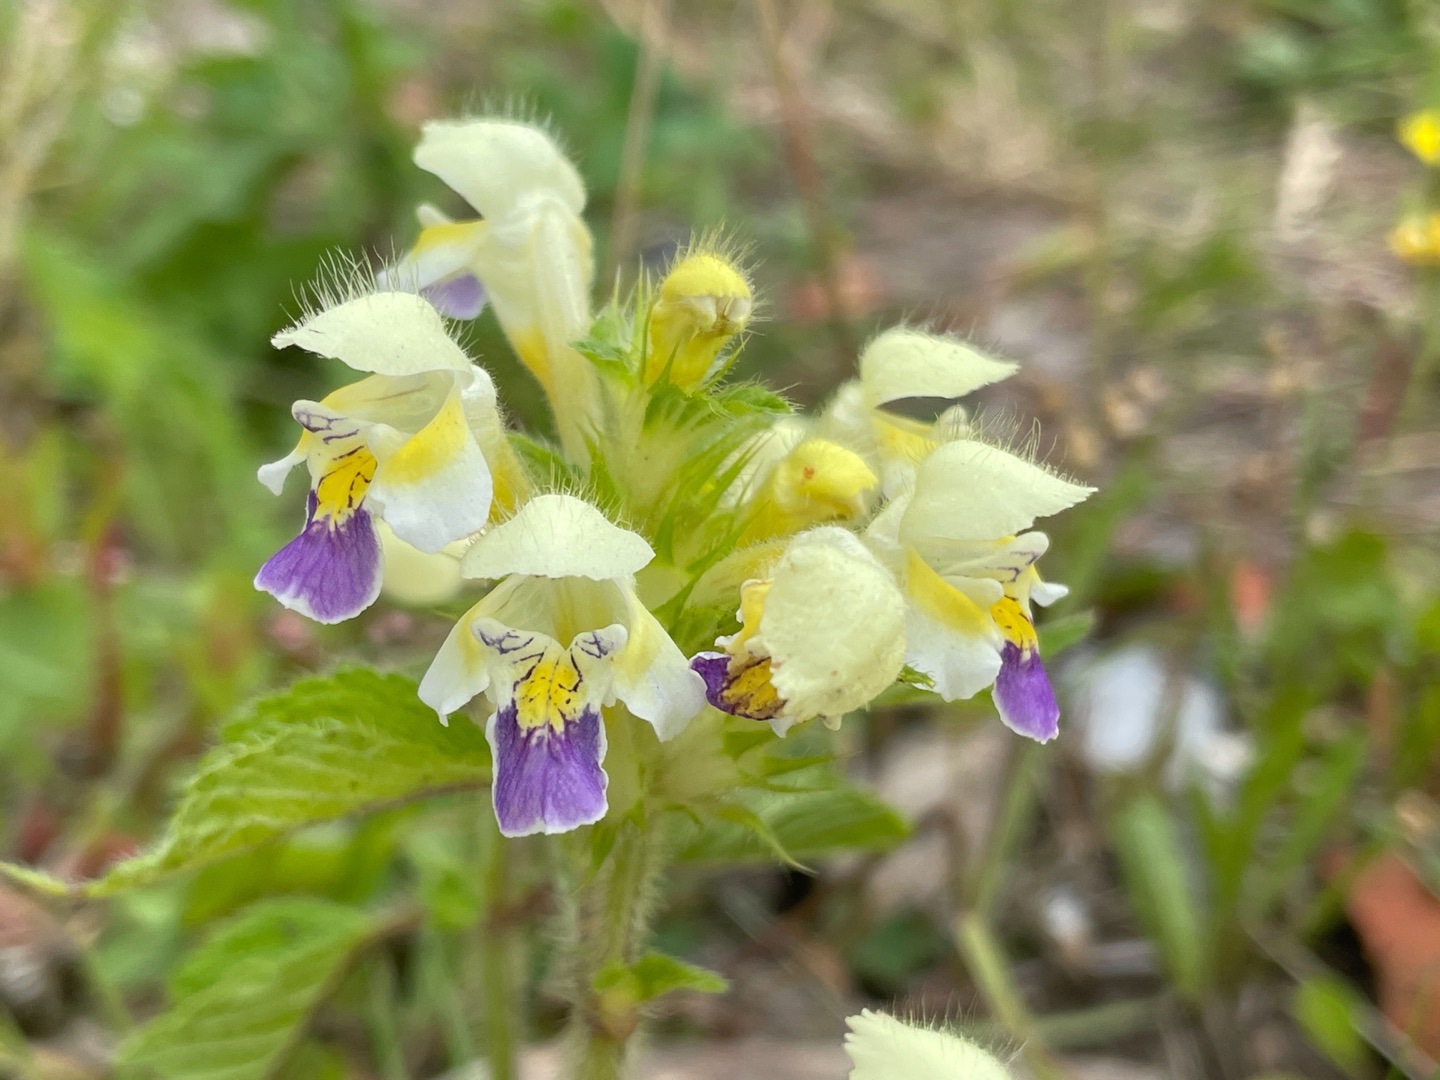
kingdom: Plantae
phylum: Tracheophyta
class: Magnoliopsida
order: Lamiales
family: Lamiaceae
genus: Galeopsis
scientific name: Galeopsis speciosa
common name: Hamp-hanekro
